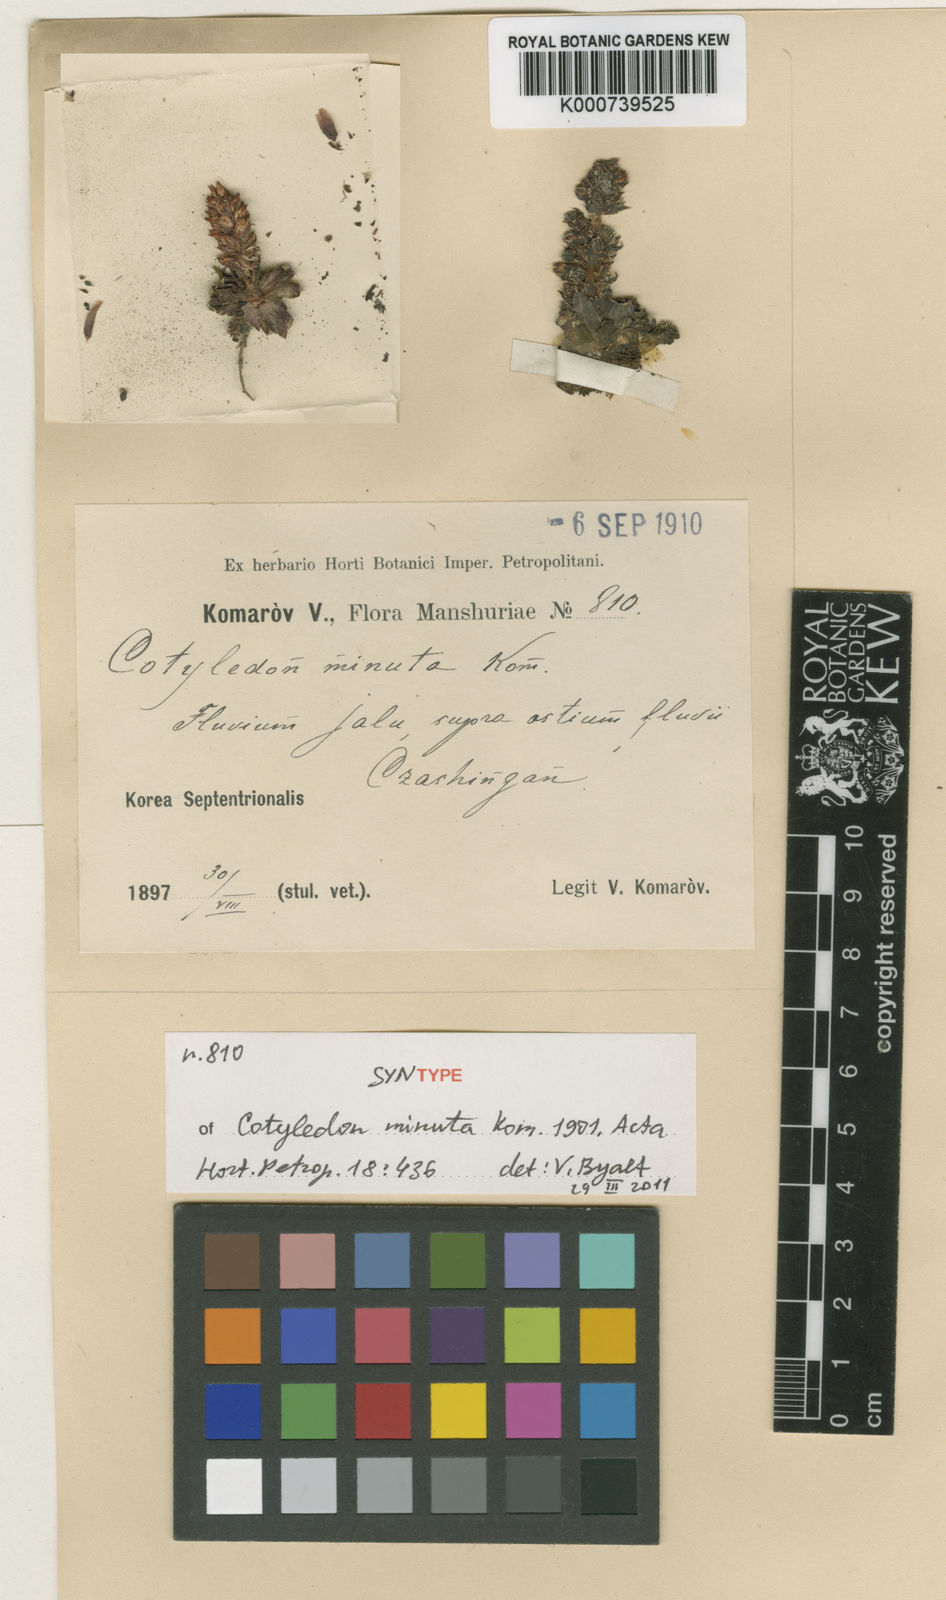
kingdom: Plantae
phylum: Tracheophyta
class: Magnoliopsida
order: Saxifragales
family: Crassulaceae
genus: Orostachys
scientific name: Orostachys spinosa
